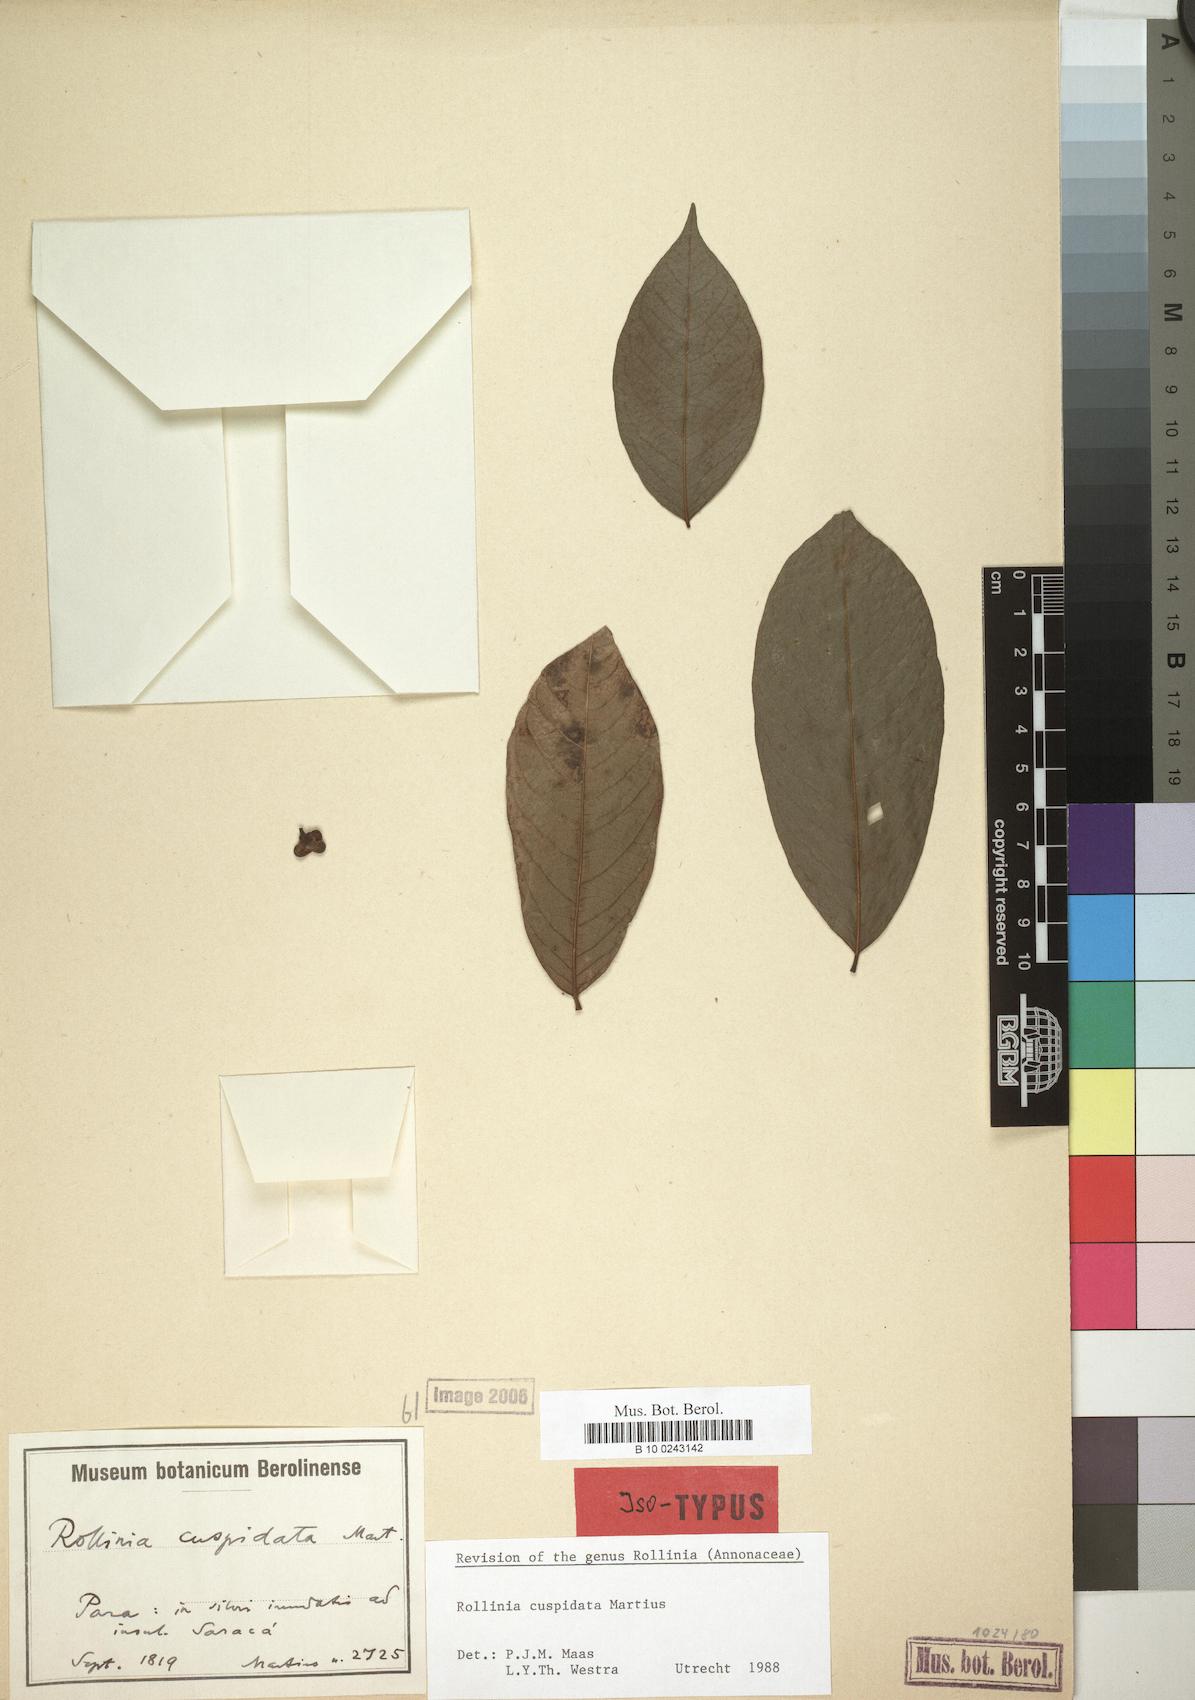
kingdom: Plantae
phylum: Tracheophyta
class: Magnoliopsida
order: Magnoliales
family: Annonaceae
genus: Annona
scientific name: Annona cuspidata
